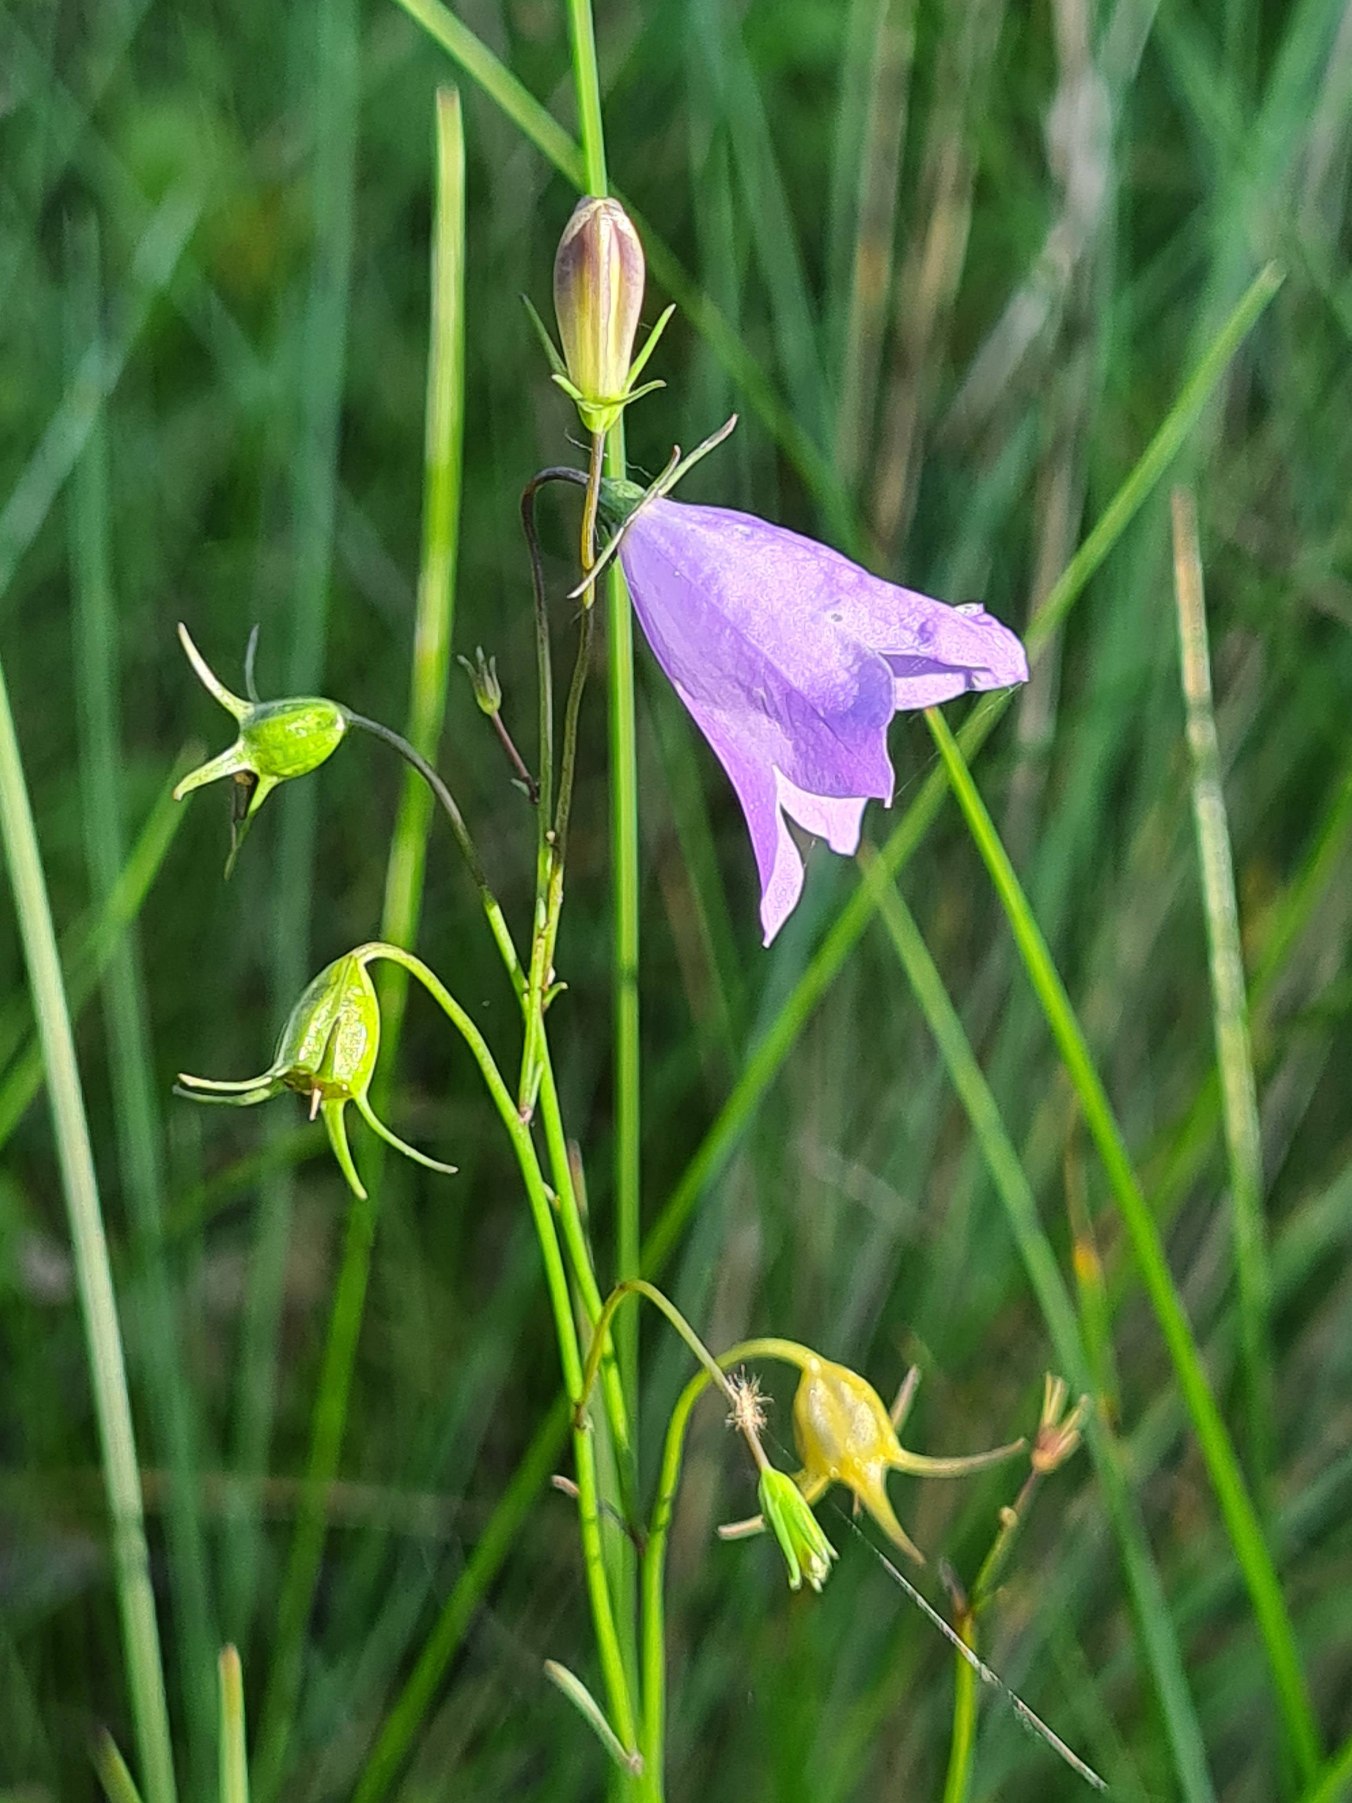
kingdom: Plantae
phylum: Tracheophyta
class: Magnoliopsida
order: Asterales
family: Campanulaceae
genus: Campanula
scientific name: Campanula rotundifolia
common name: Liden klokke
